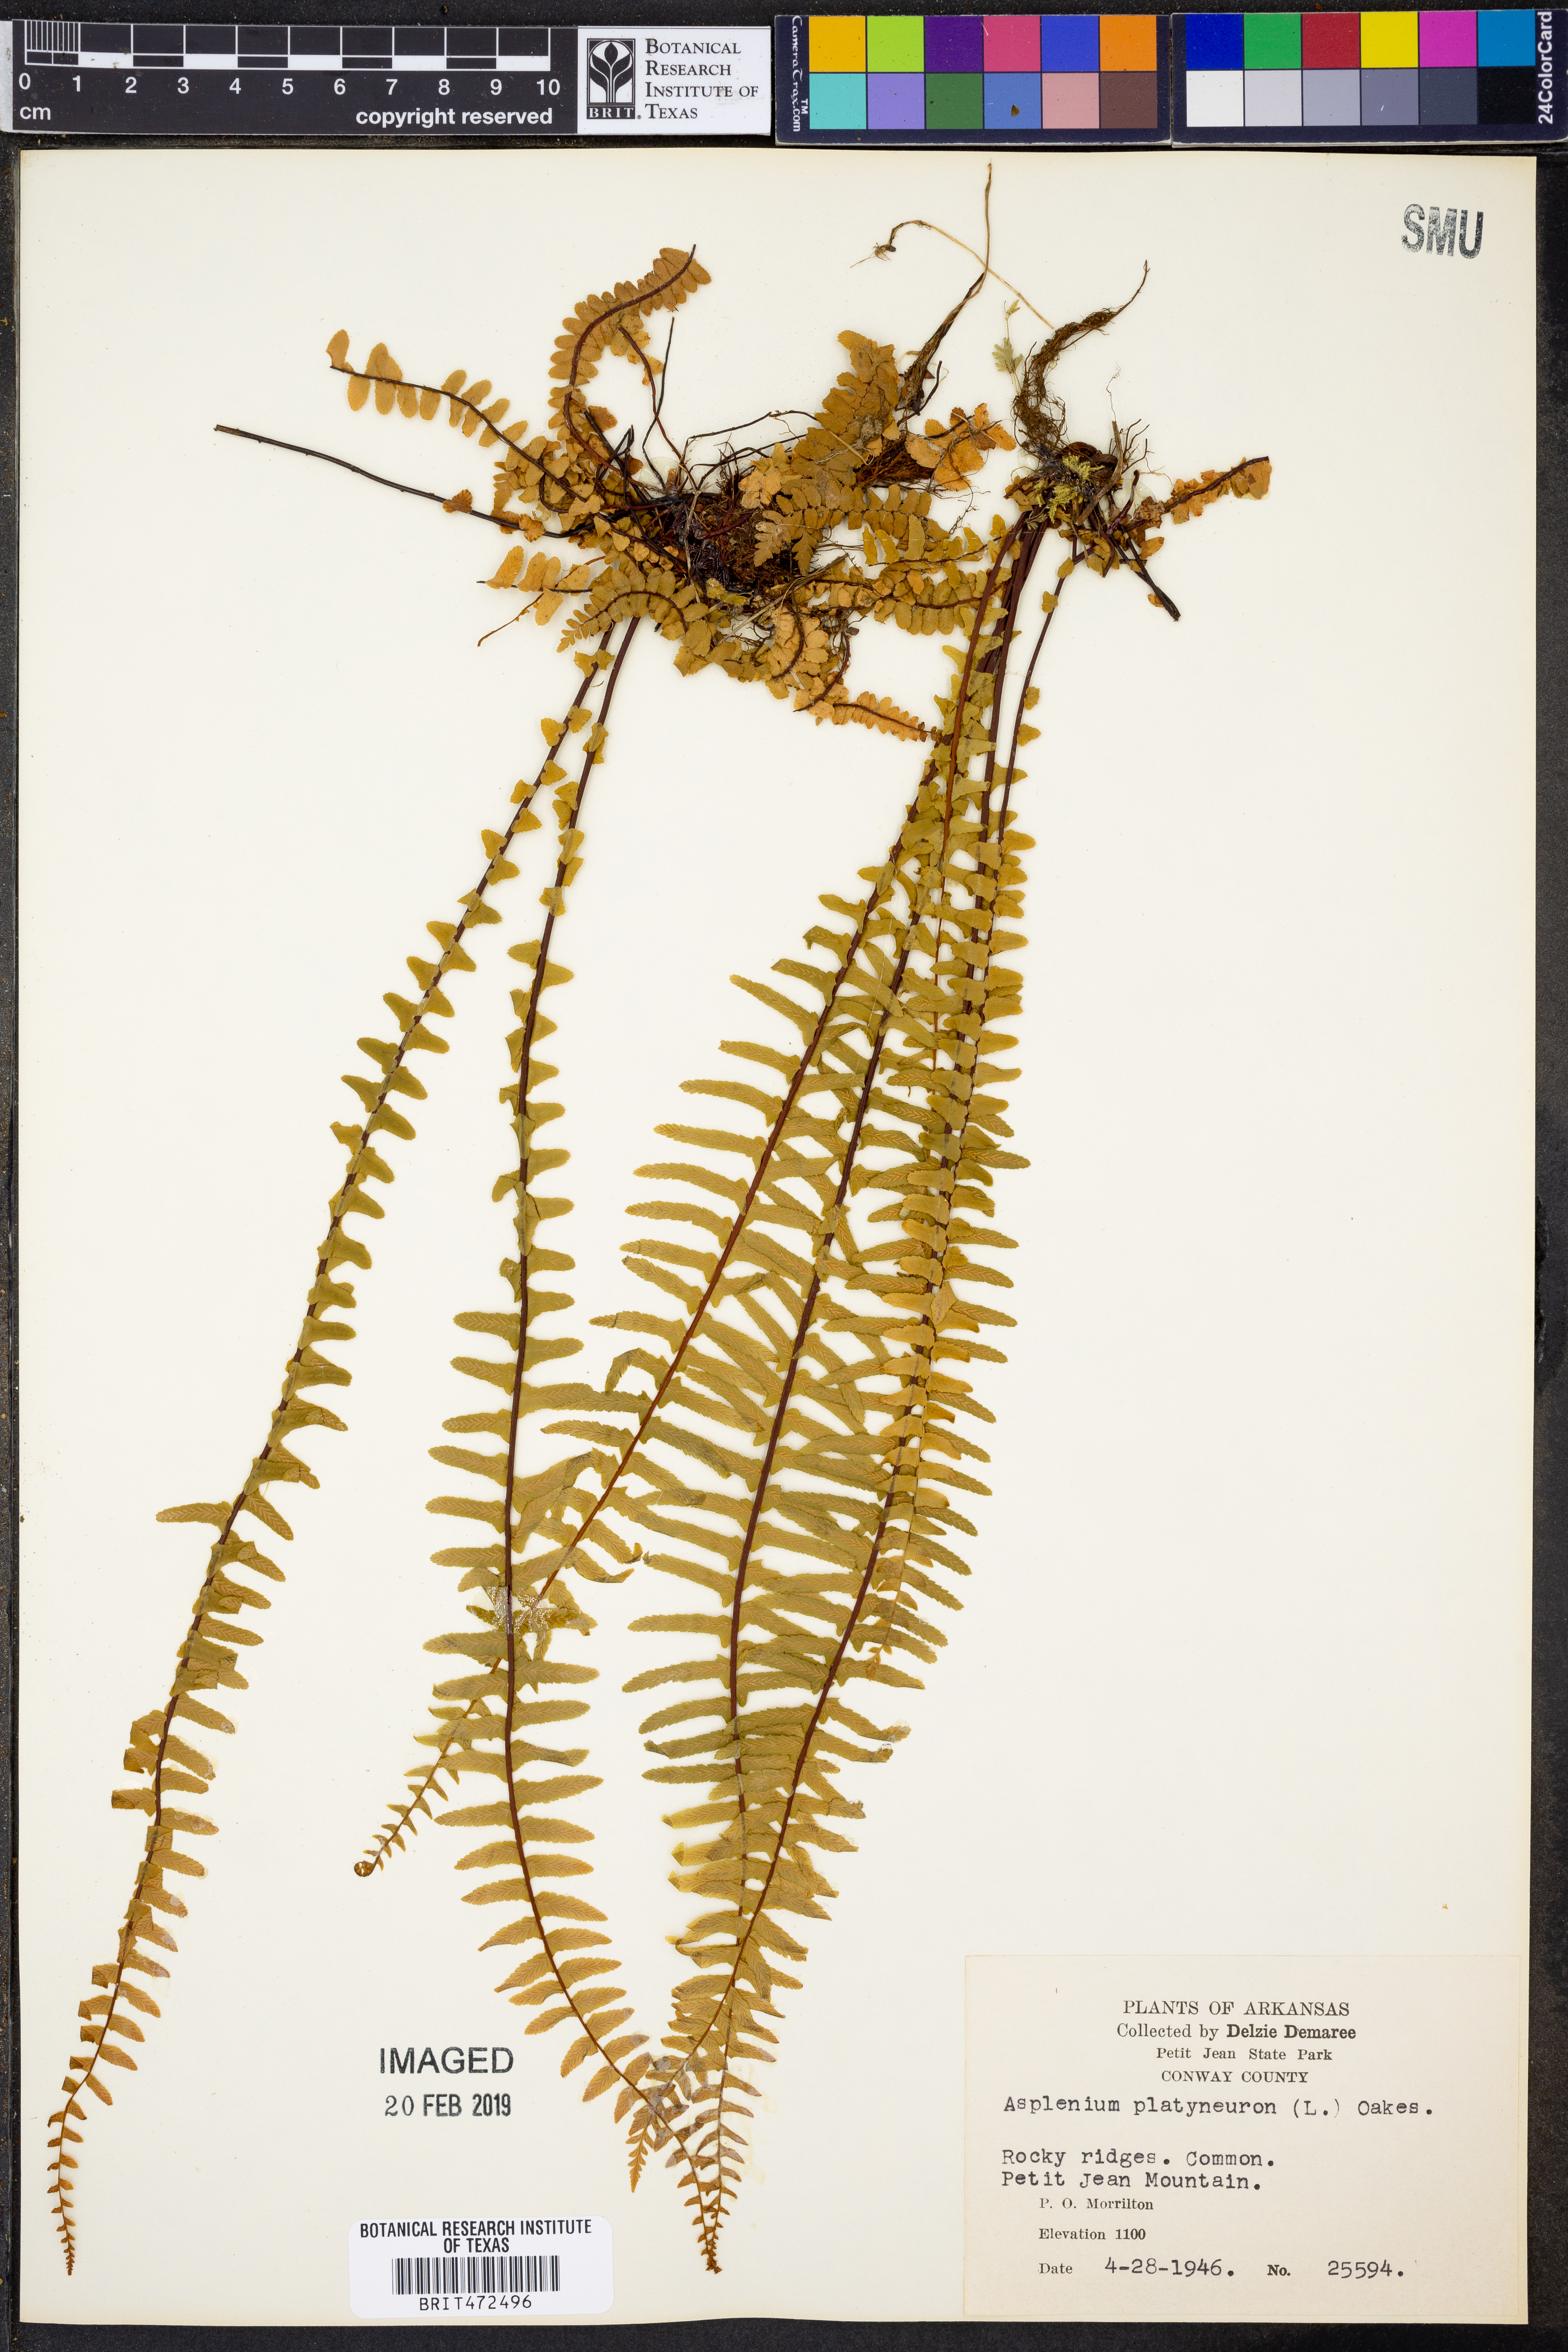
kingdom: Plantae
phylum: Tracheophyta
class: Polypodiopsida
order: Polypodiales
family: Aspleniaceae
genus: Asplenium
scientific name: Asplenium platyneuron
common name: Ebony spleenwort
